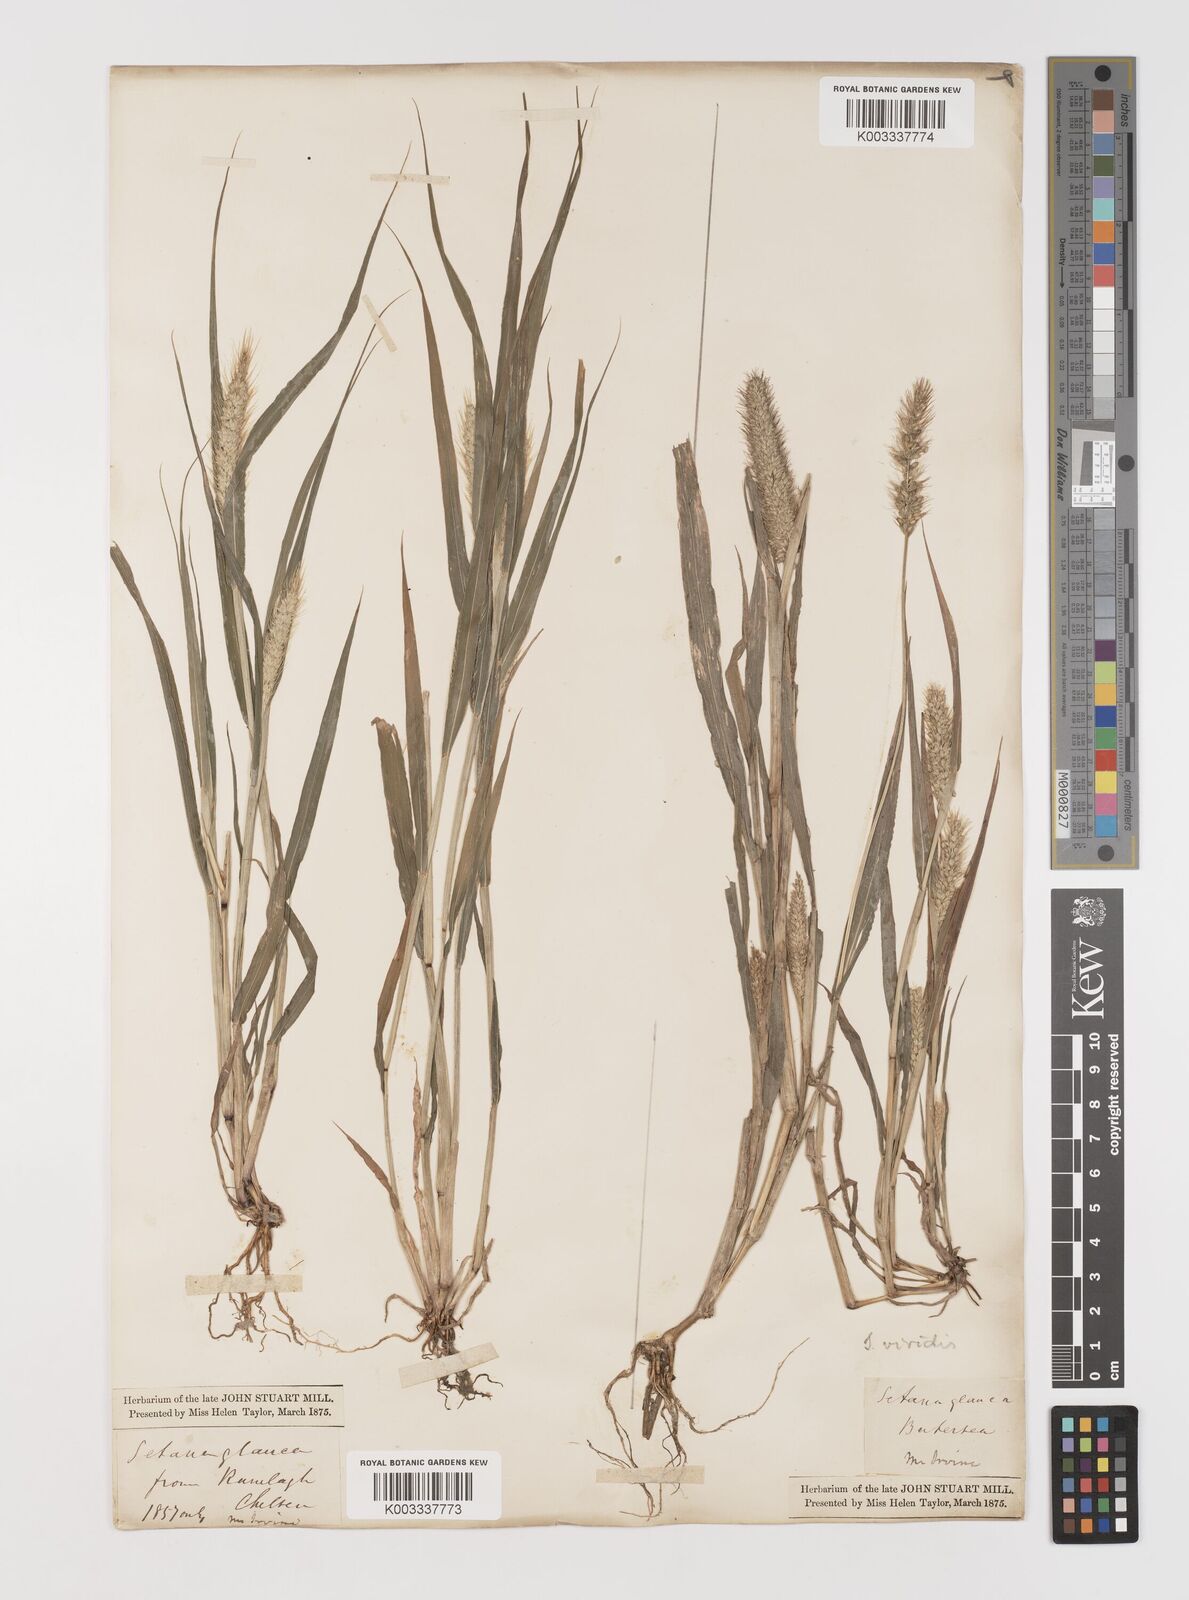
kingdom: Plantae
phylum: Tracheophyta
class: Liliopsida
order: Poales
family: Poaceae
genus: Setaria
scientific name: Setaria viridis
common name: Green bristlegrass
